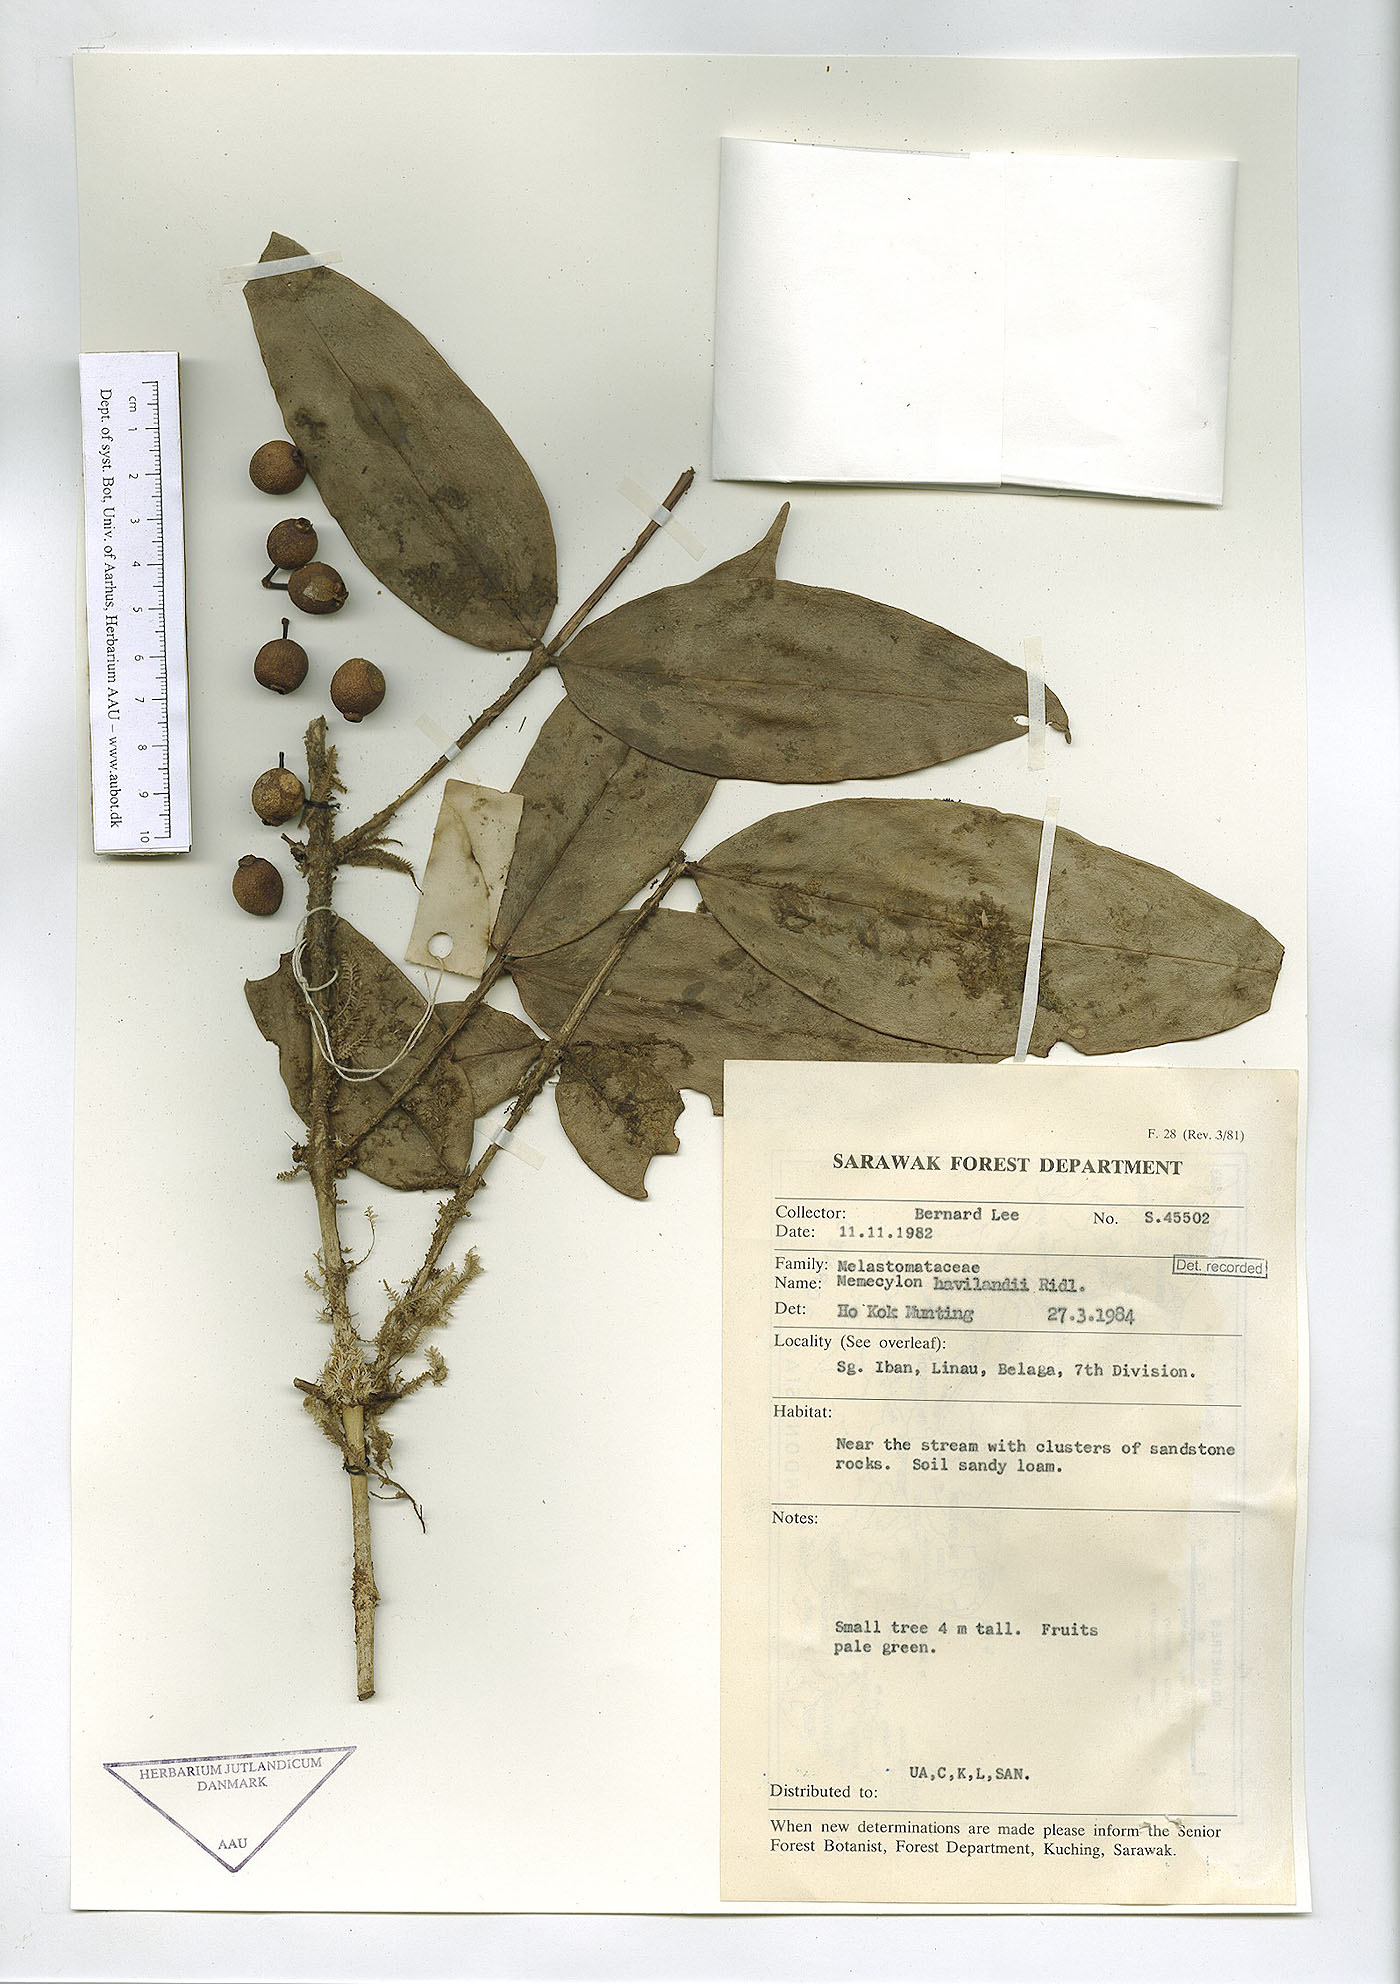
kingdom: Plantae
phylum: Tracheophyta
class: Magnoliopsida
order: Myrtales
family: Melastomataceae
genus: Memecylon
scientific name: Memecylon longifolium
